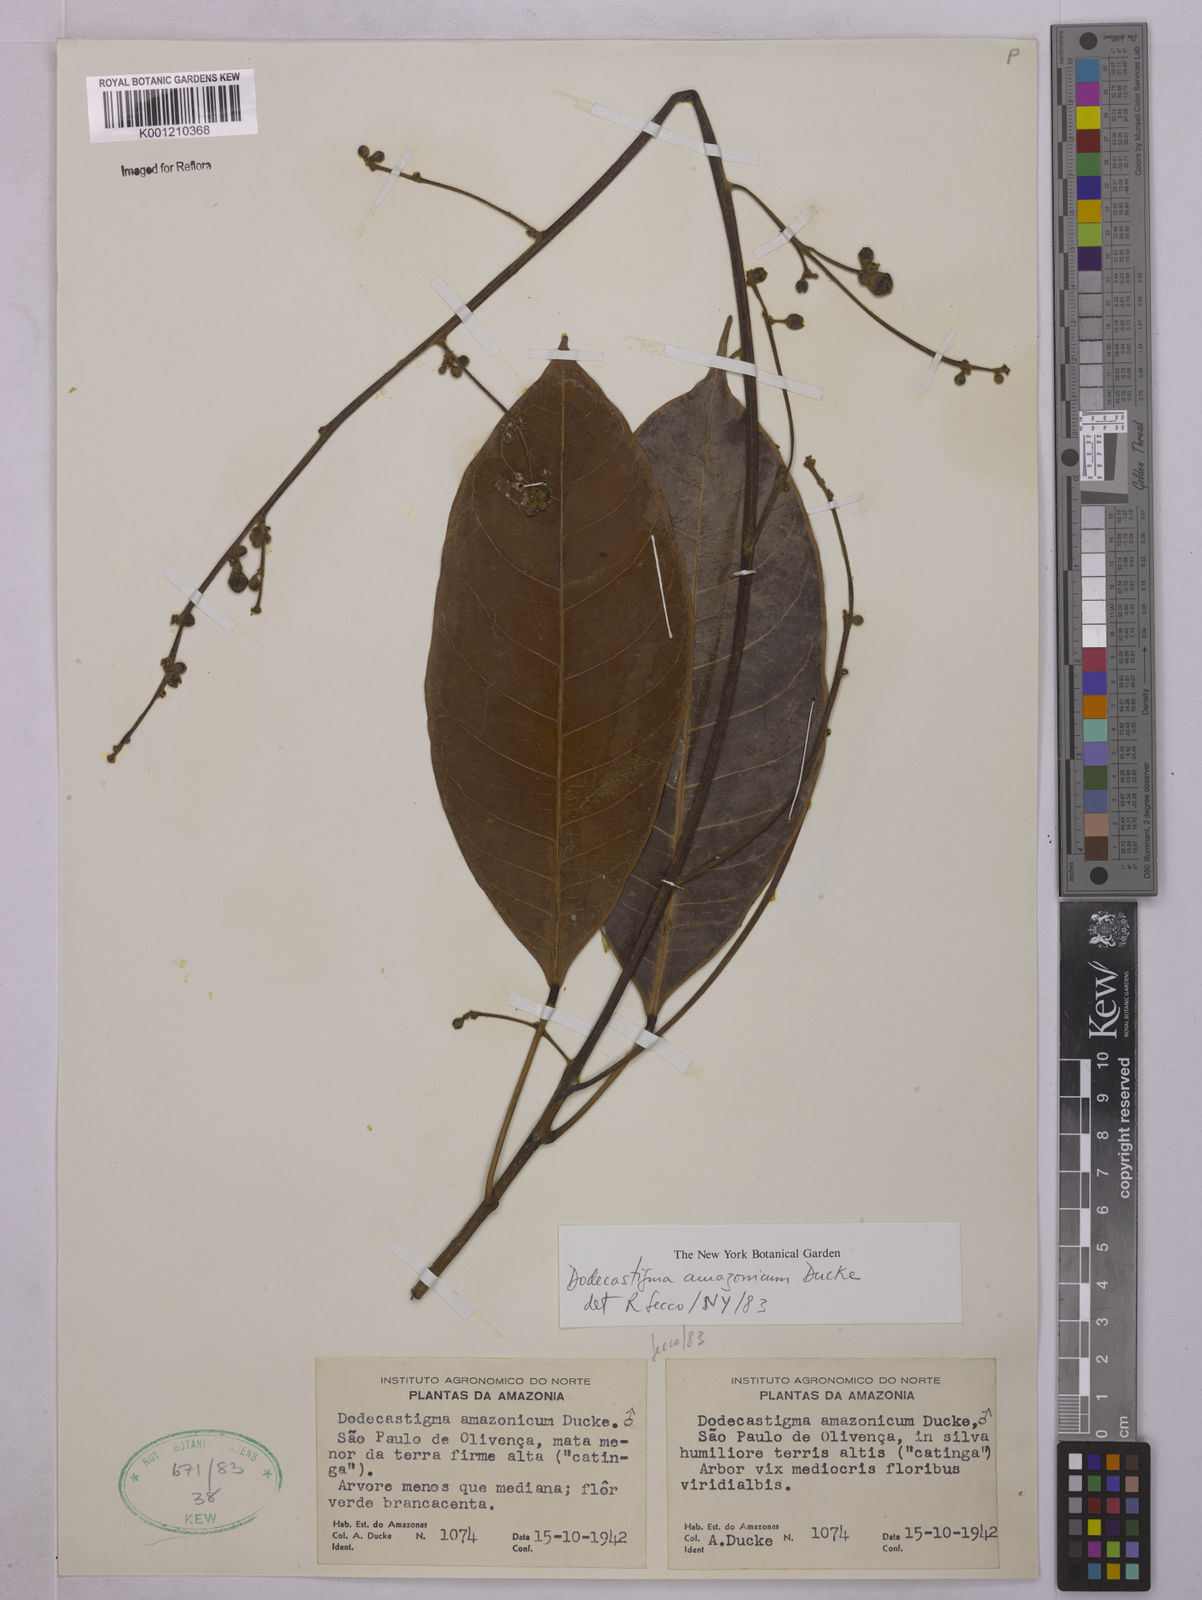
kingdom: Plantae
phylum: Tracheophyta
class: Magnoliopsida
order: Malpighiales
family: Euphorbiaceae
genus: Dodecastigma
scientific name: Dodecastigma amazonicum
